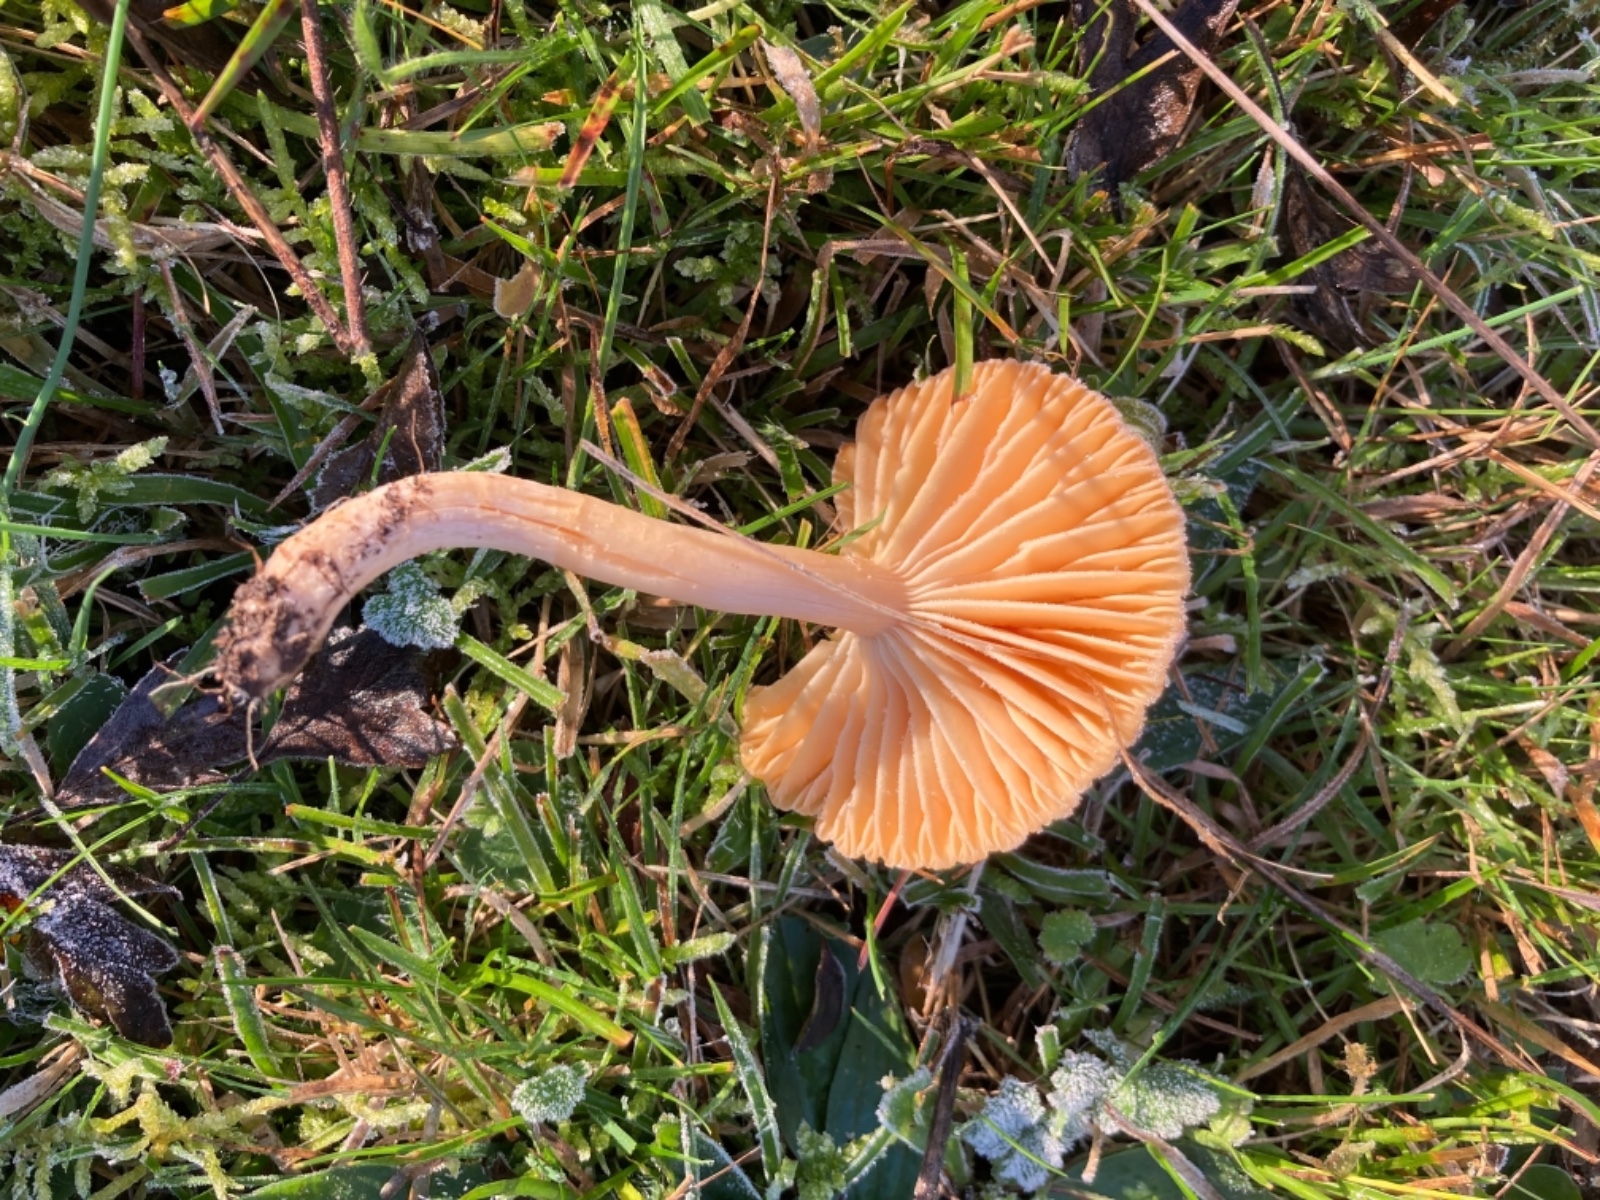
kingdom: Fungi
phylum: Basidiomycota
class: Agaricomycetes
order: Agaricales
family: Hygrophoraceae
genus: Cuphophyllus
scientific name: Cuphophyllus pratensis
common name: eng-vokshat
